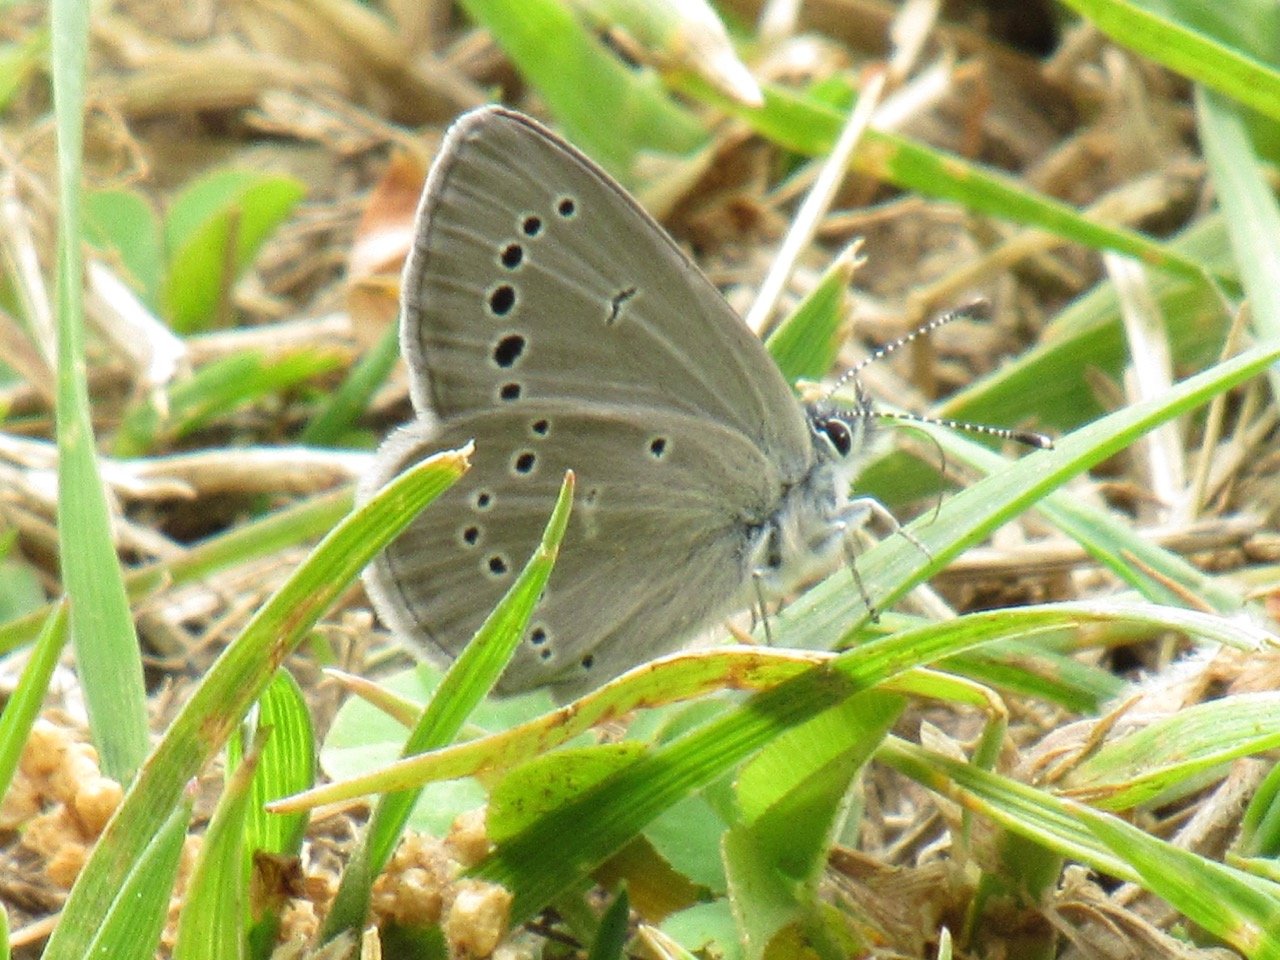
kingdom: Animalia
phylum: Arthropoda
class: Insecta
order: Lepidoptera
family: Lycaenidae
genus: Glaucopsyche
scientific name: Glaucopsyche lygdamus
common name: Silvery Blue
